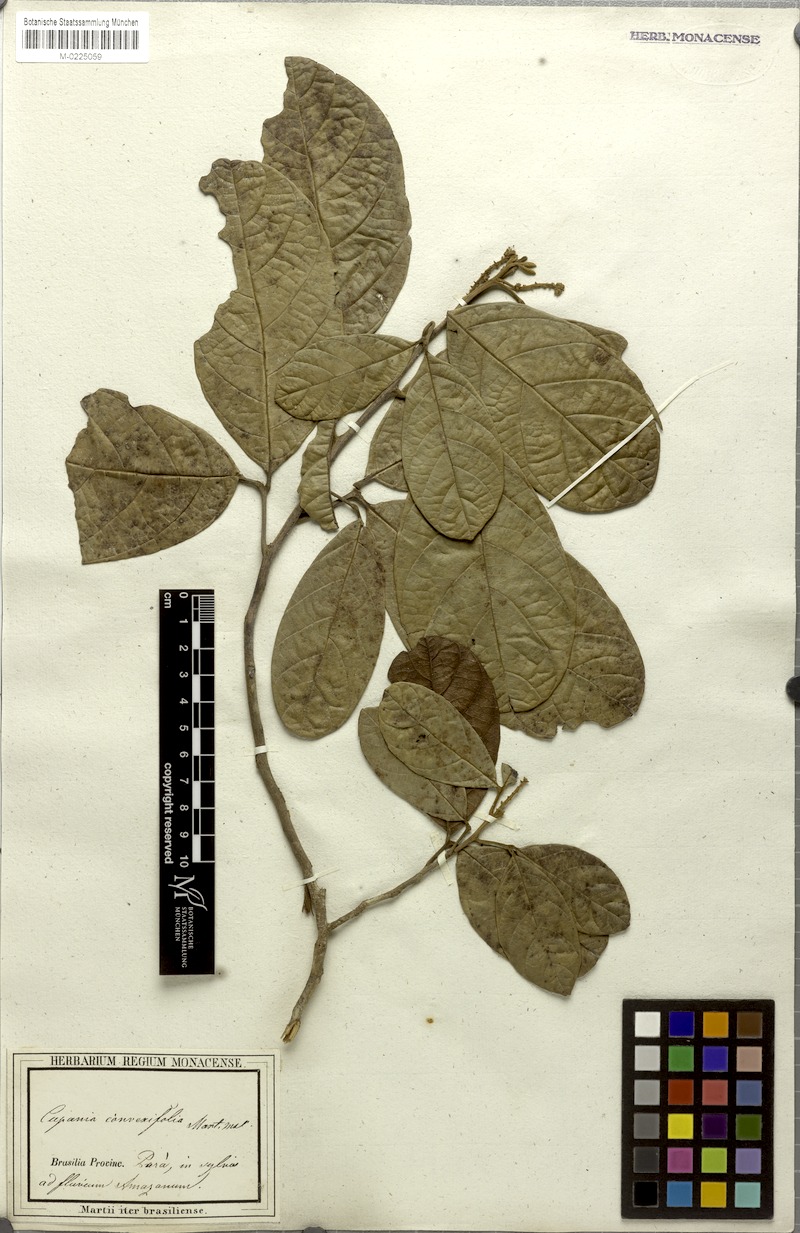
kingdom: Plantae
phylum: Tracheophyta
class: Magnoliopsida
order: Sapindales
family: Sapindaceae
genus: Cupania
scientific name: Cupania diphylla
